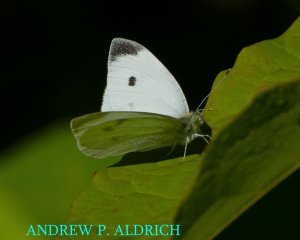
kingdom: Animalia
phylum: Arthropoda
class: Insecta
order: Lepidoptera
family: Pieridae
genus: Pieris
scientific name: Pieris rapae
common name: Cabbage White
